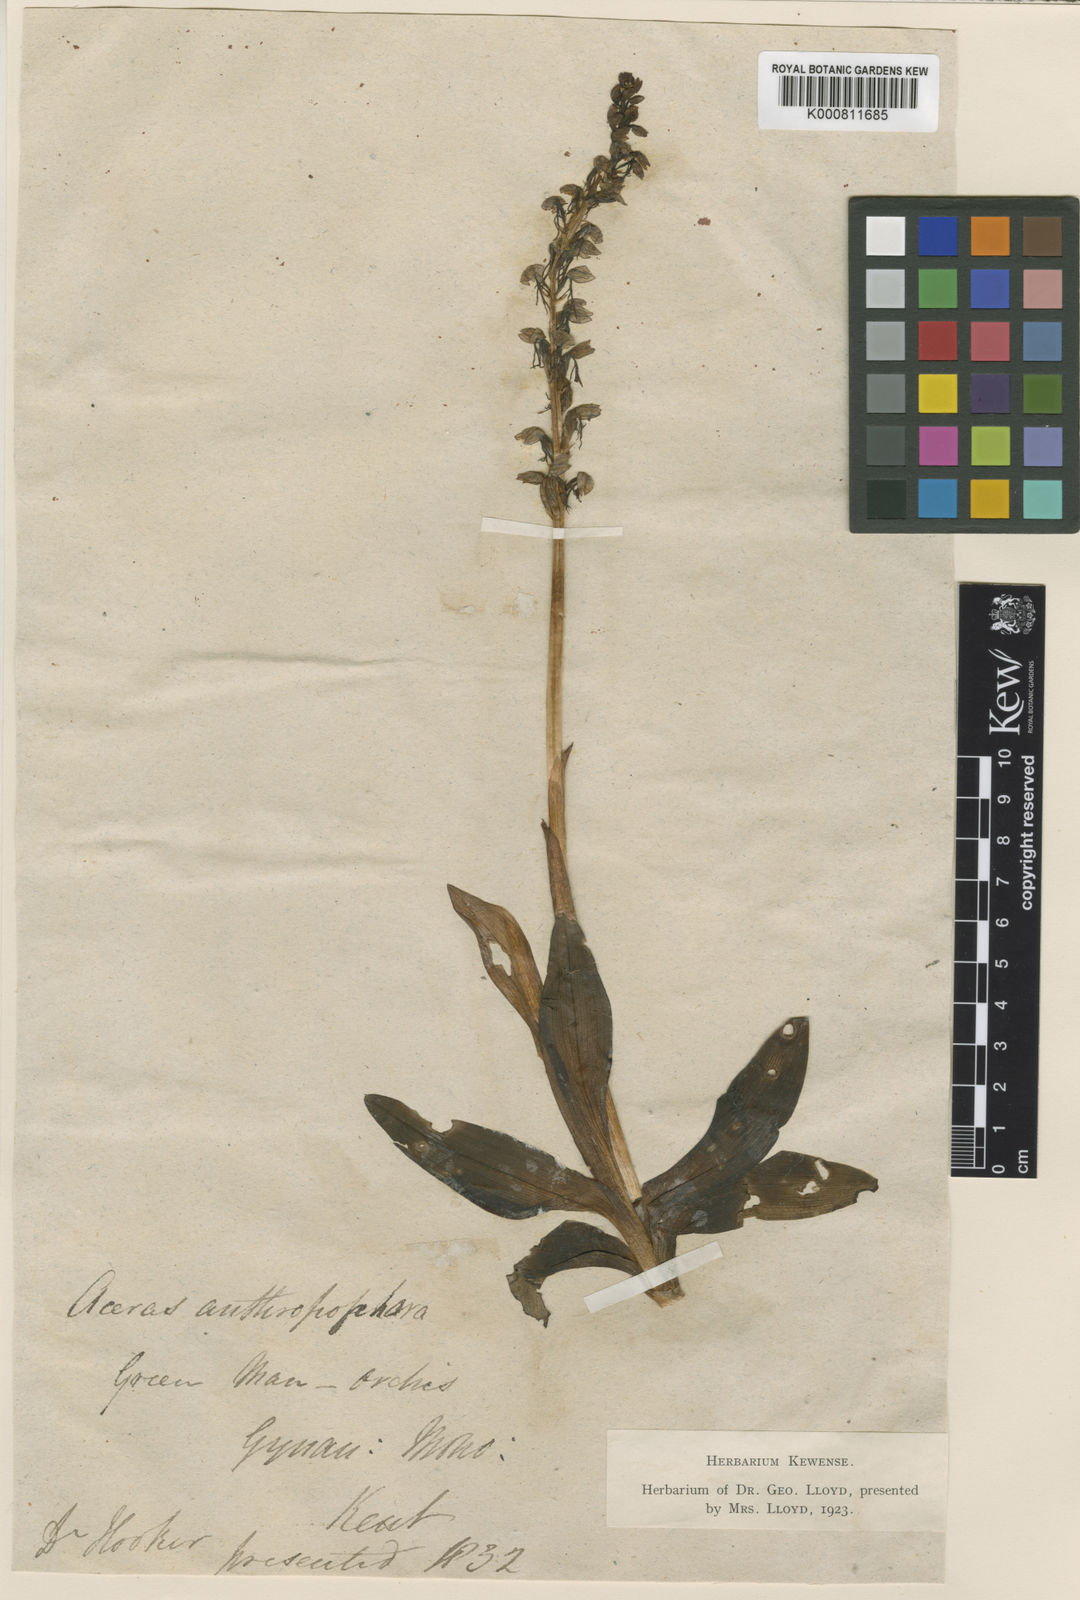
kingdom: Plantae
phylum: Tracheophyta
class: Liliopsida
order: Asparagales
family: Orchidaceae
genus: Orchis
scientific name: Orchis
